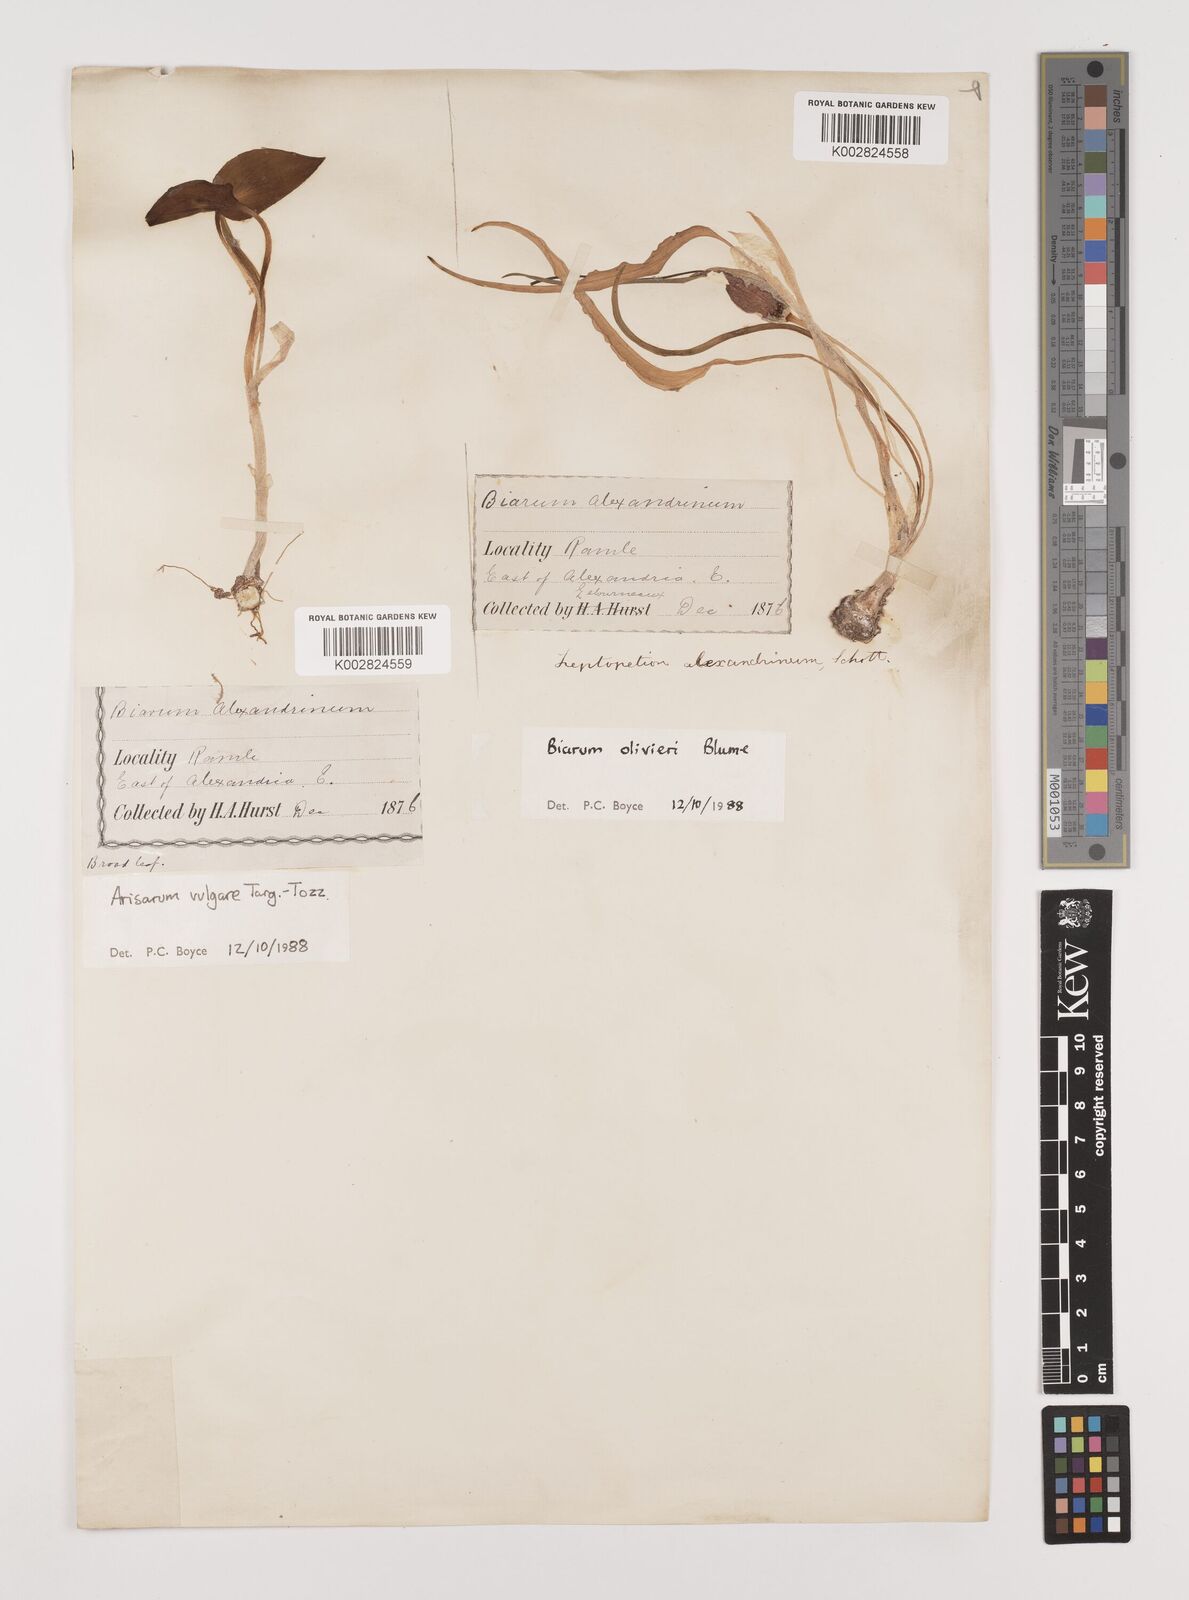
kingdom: Plantae
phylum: Tracheophyta
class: Liliopsida
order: Alismatales
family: Araceae
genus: Biarum
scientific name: Biarum olivieri
